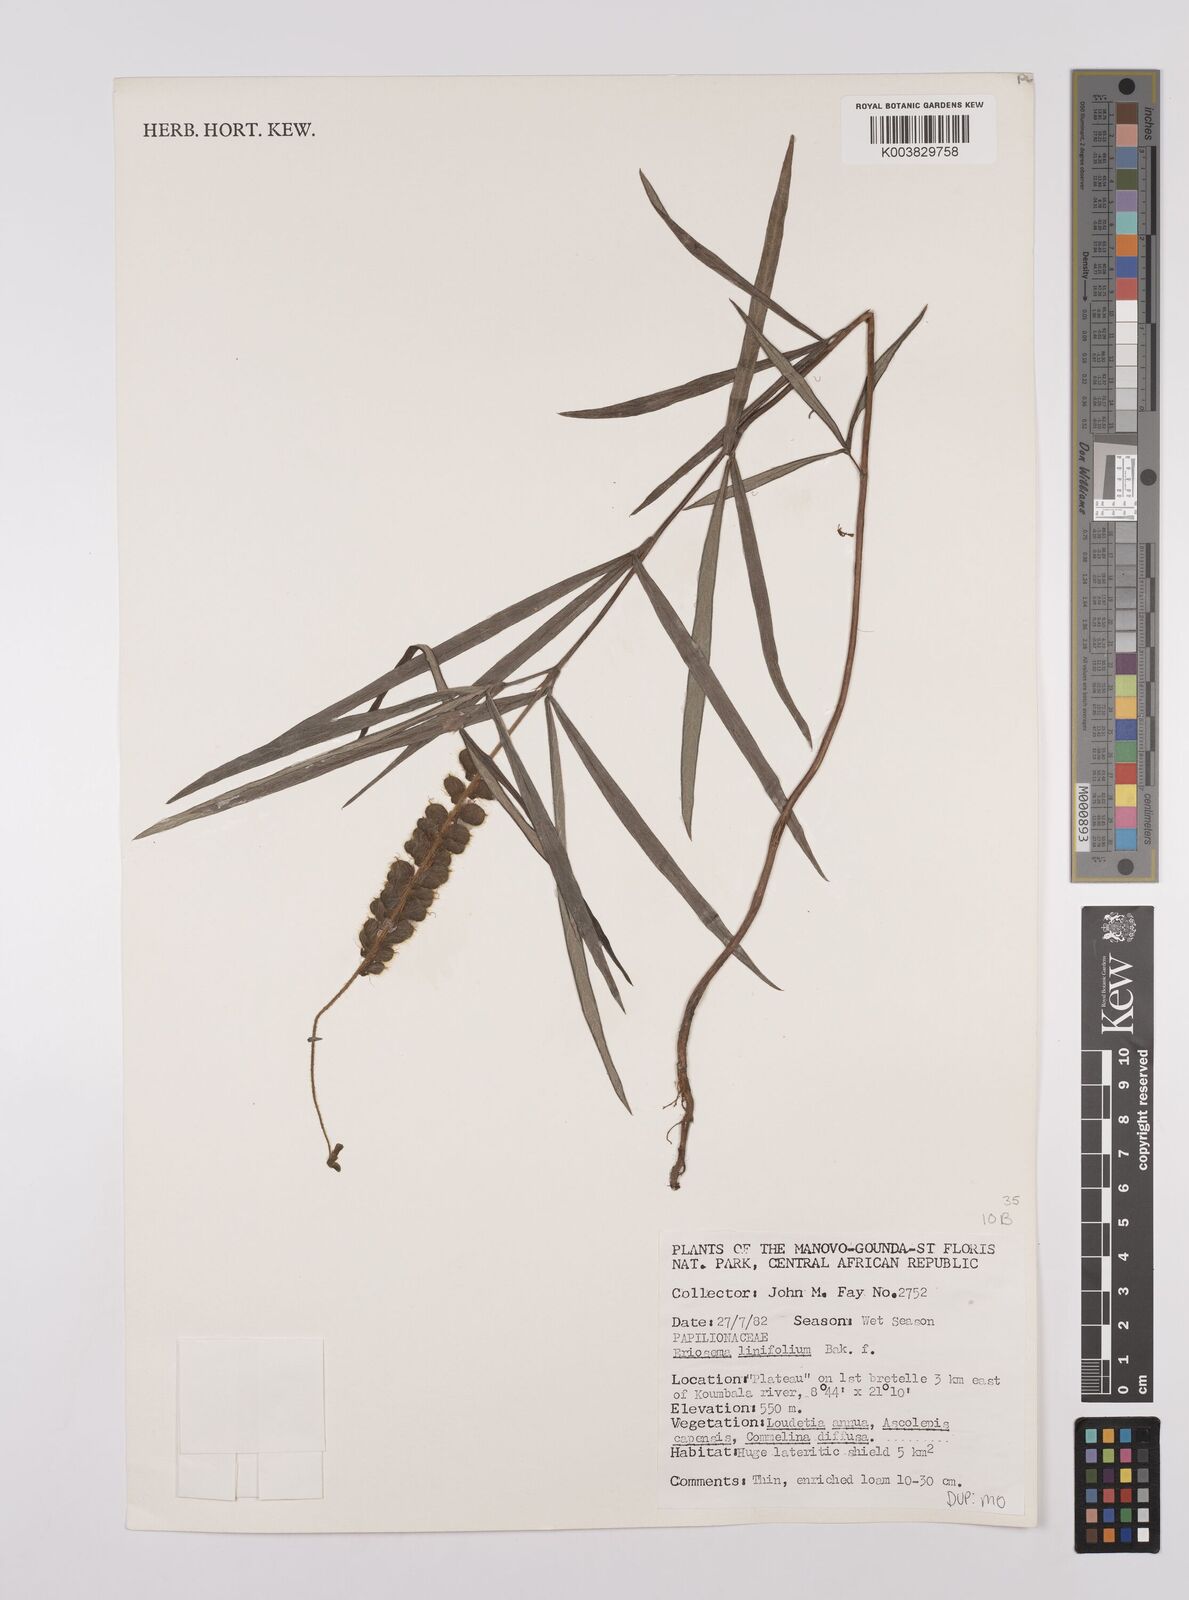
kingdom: Plantae
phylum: Tracheophyta
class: Magnoliopsida
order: Fabales
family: Fabaceae
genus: Eriosema
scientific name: Eriosema linifolium
